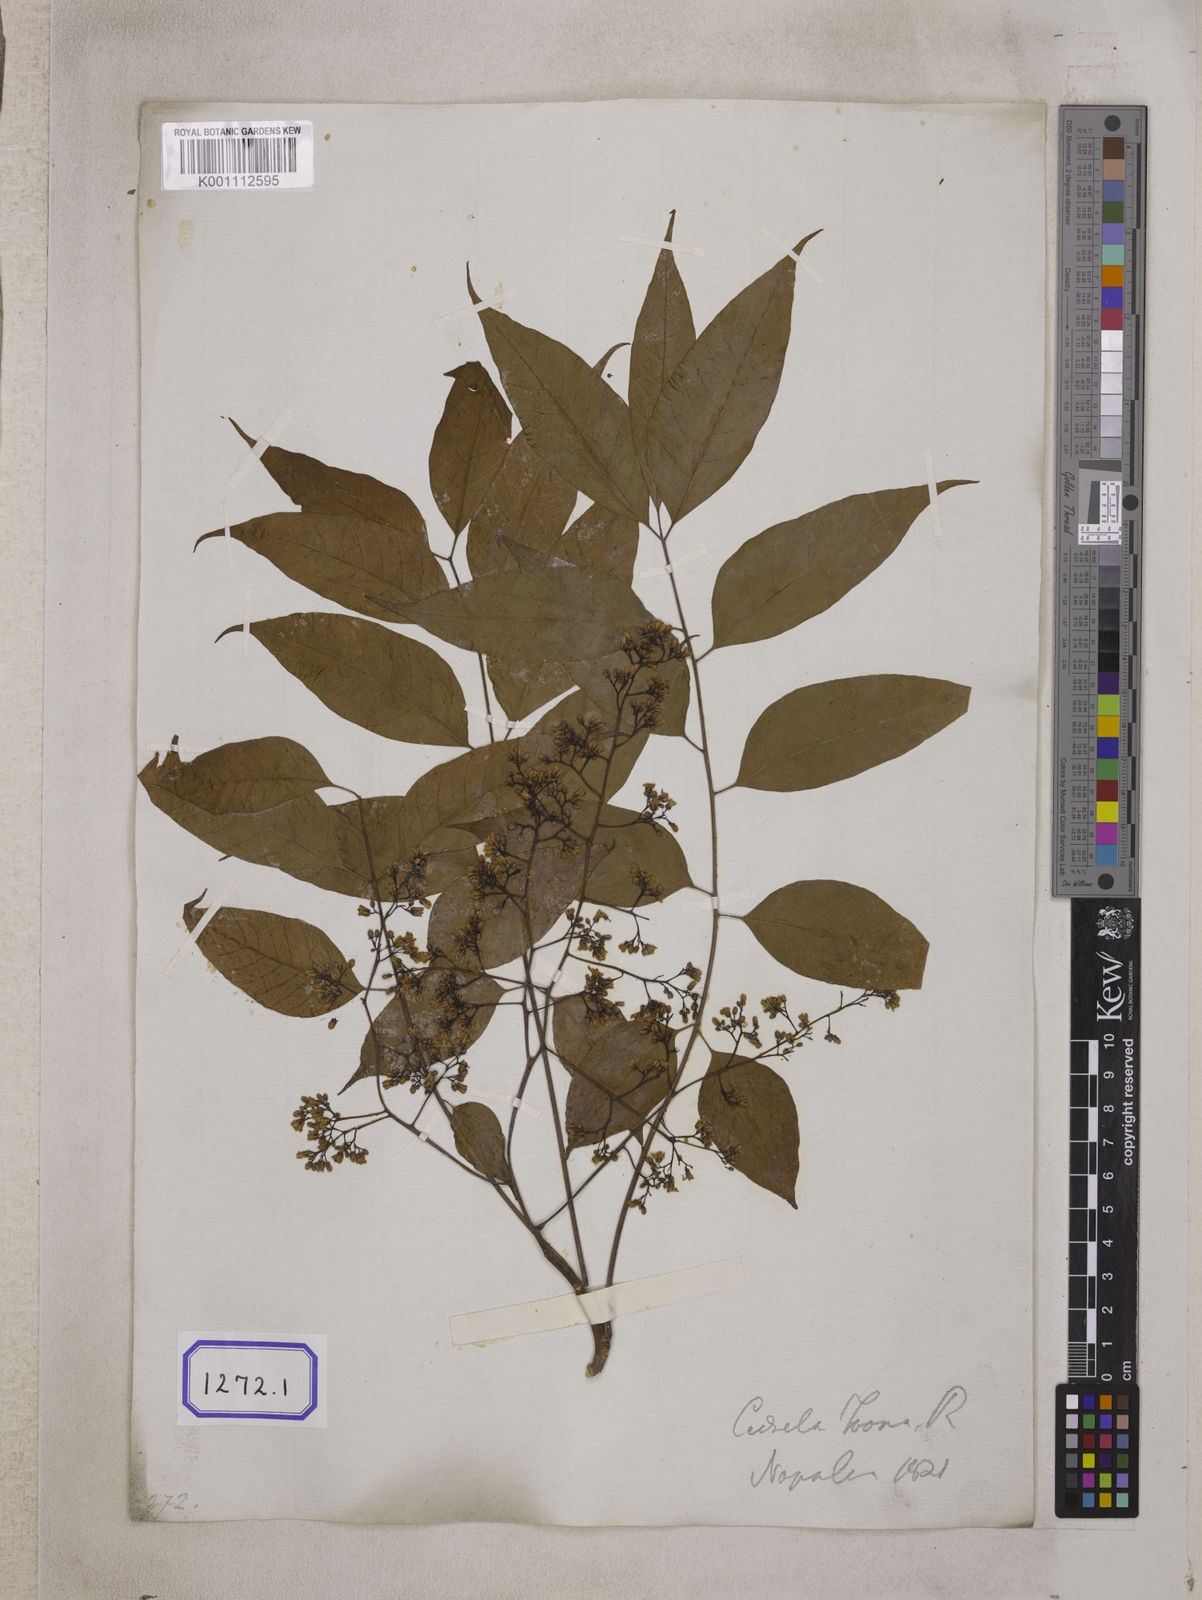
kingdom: Plantae
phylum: Tracheophyta
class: Magnoliopsida
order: Sapindales
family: Meliaceae
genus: Cedrela
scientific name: Cedrela
